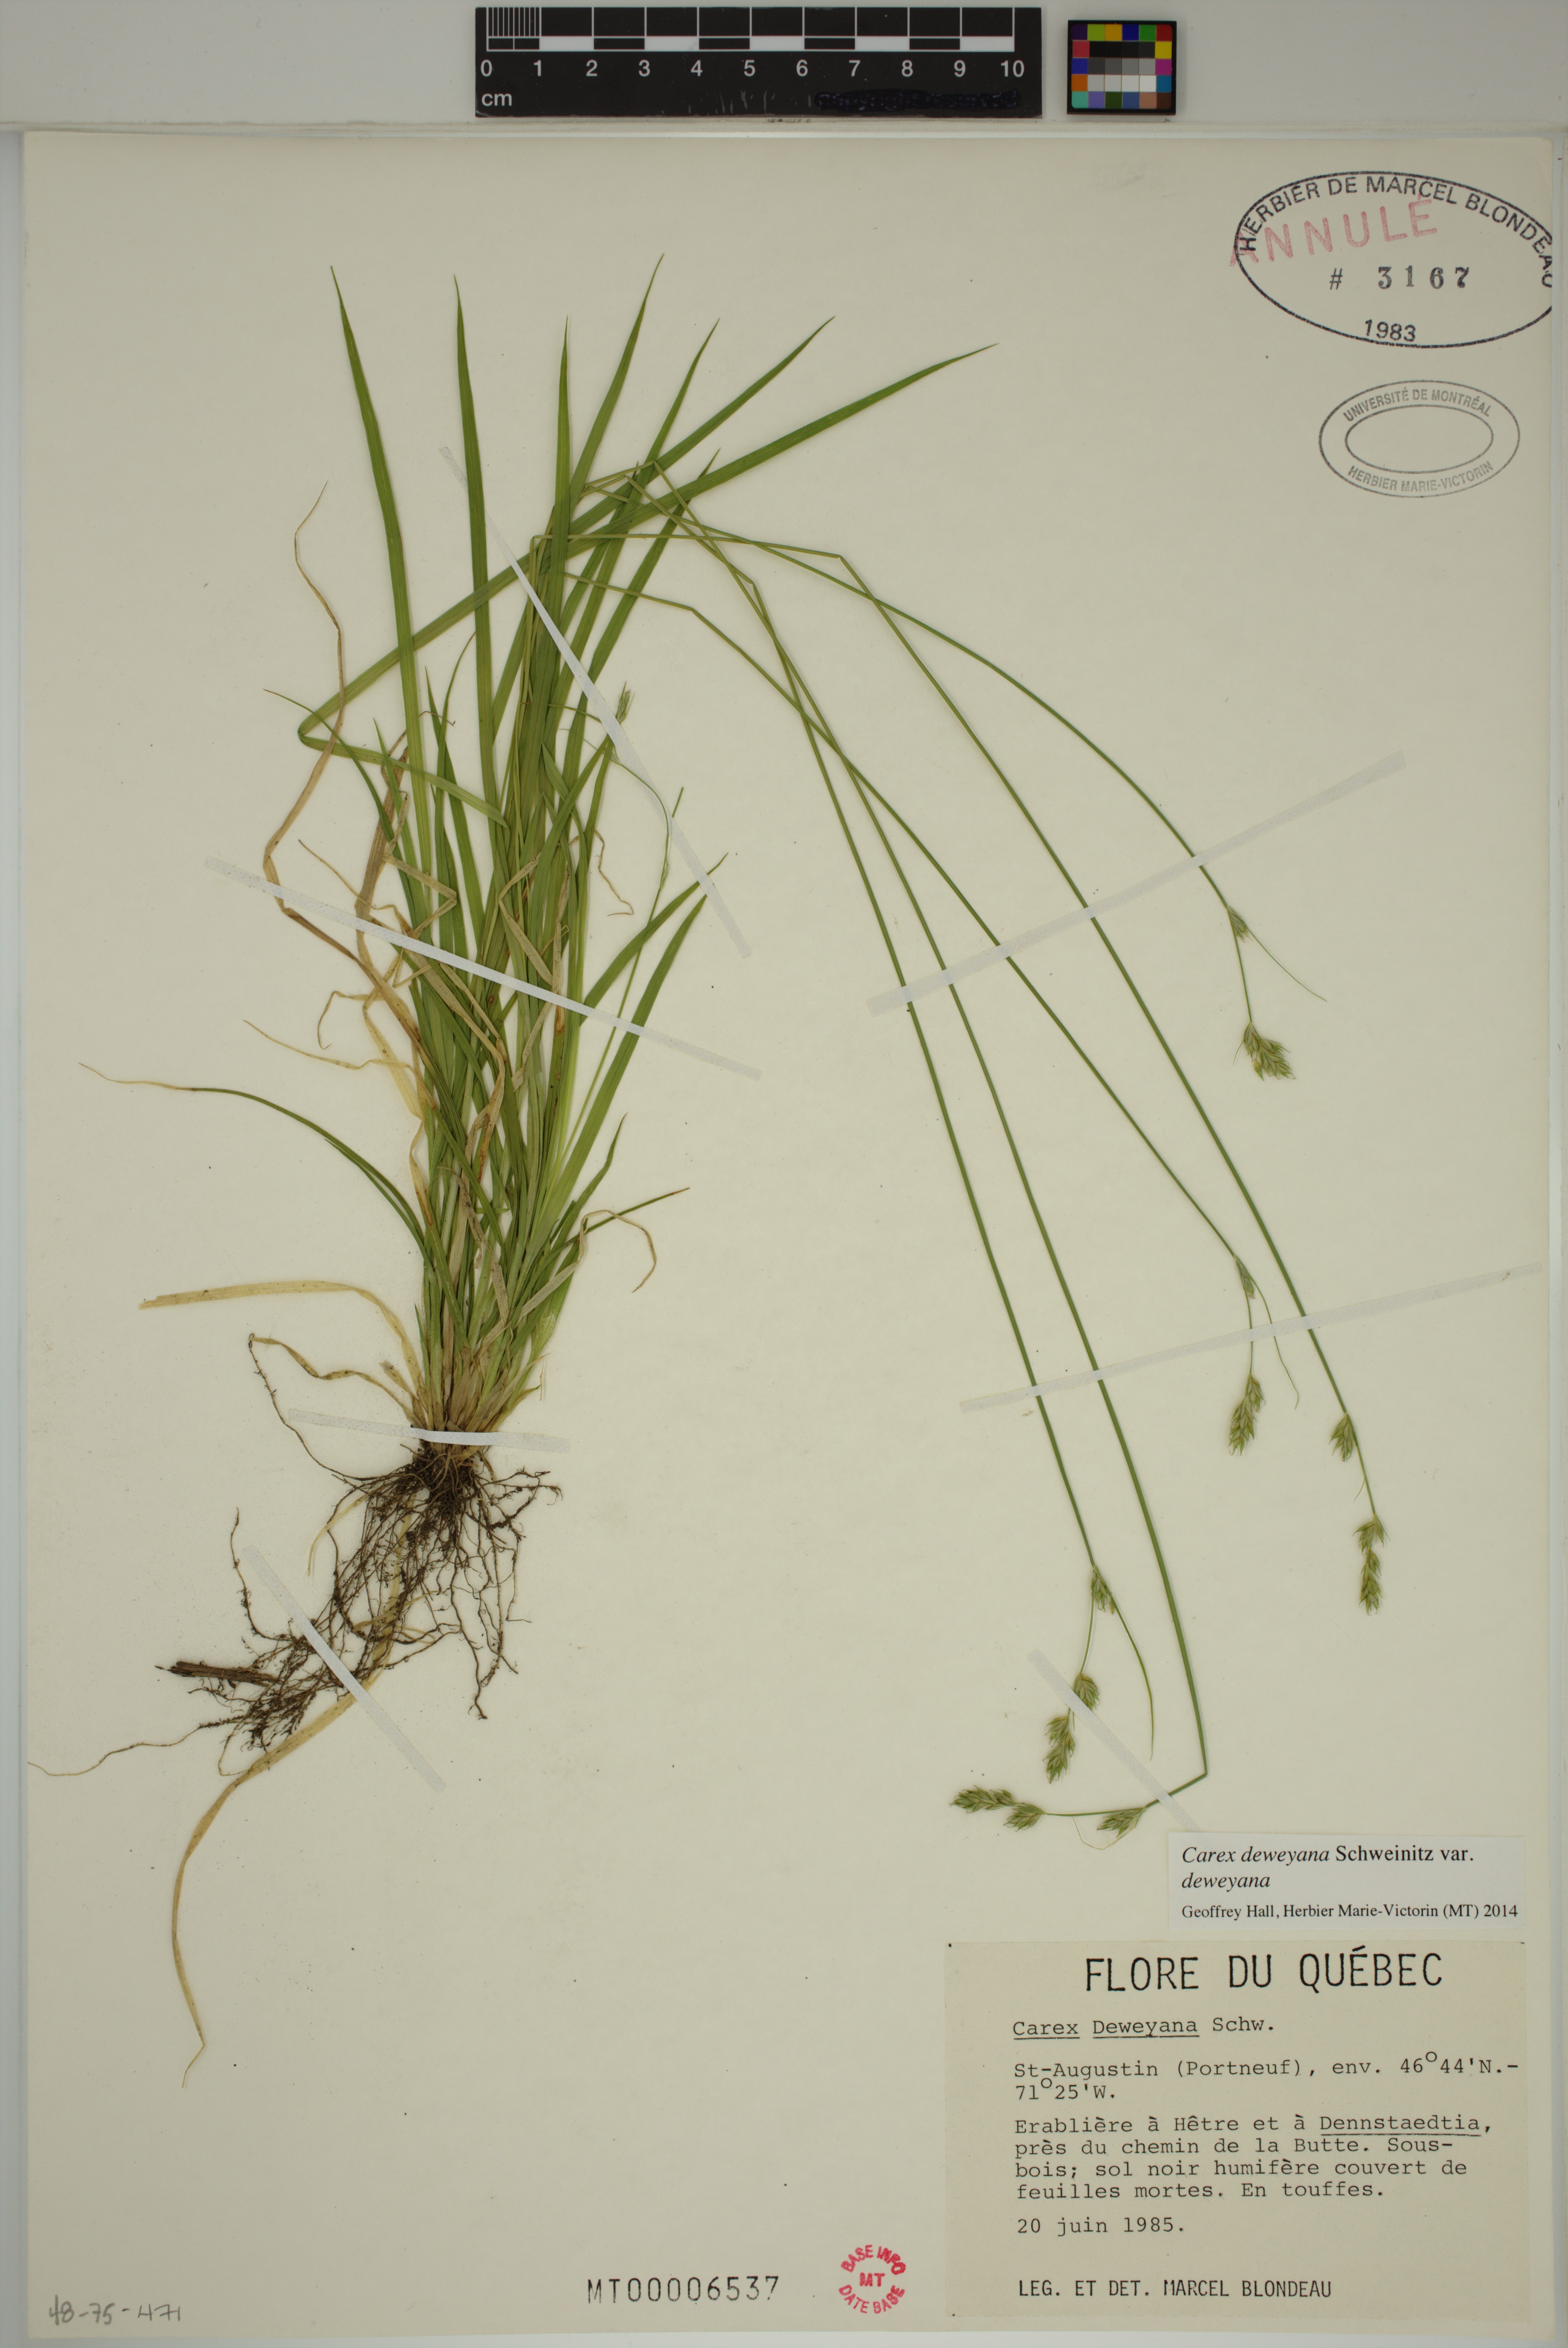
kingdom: Plantae
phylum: Tracheophyta
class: Liliopsida
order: Poales
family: Cyperaceae
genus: Carex
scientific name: Carex deweyana
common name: Dewey's sedge
